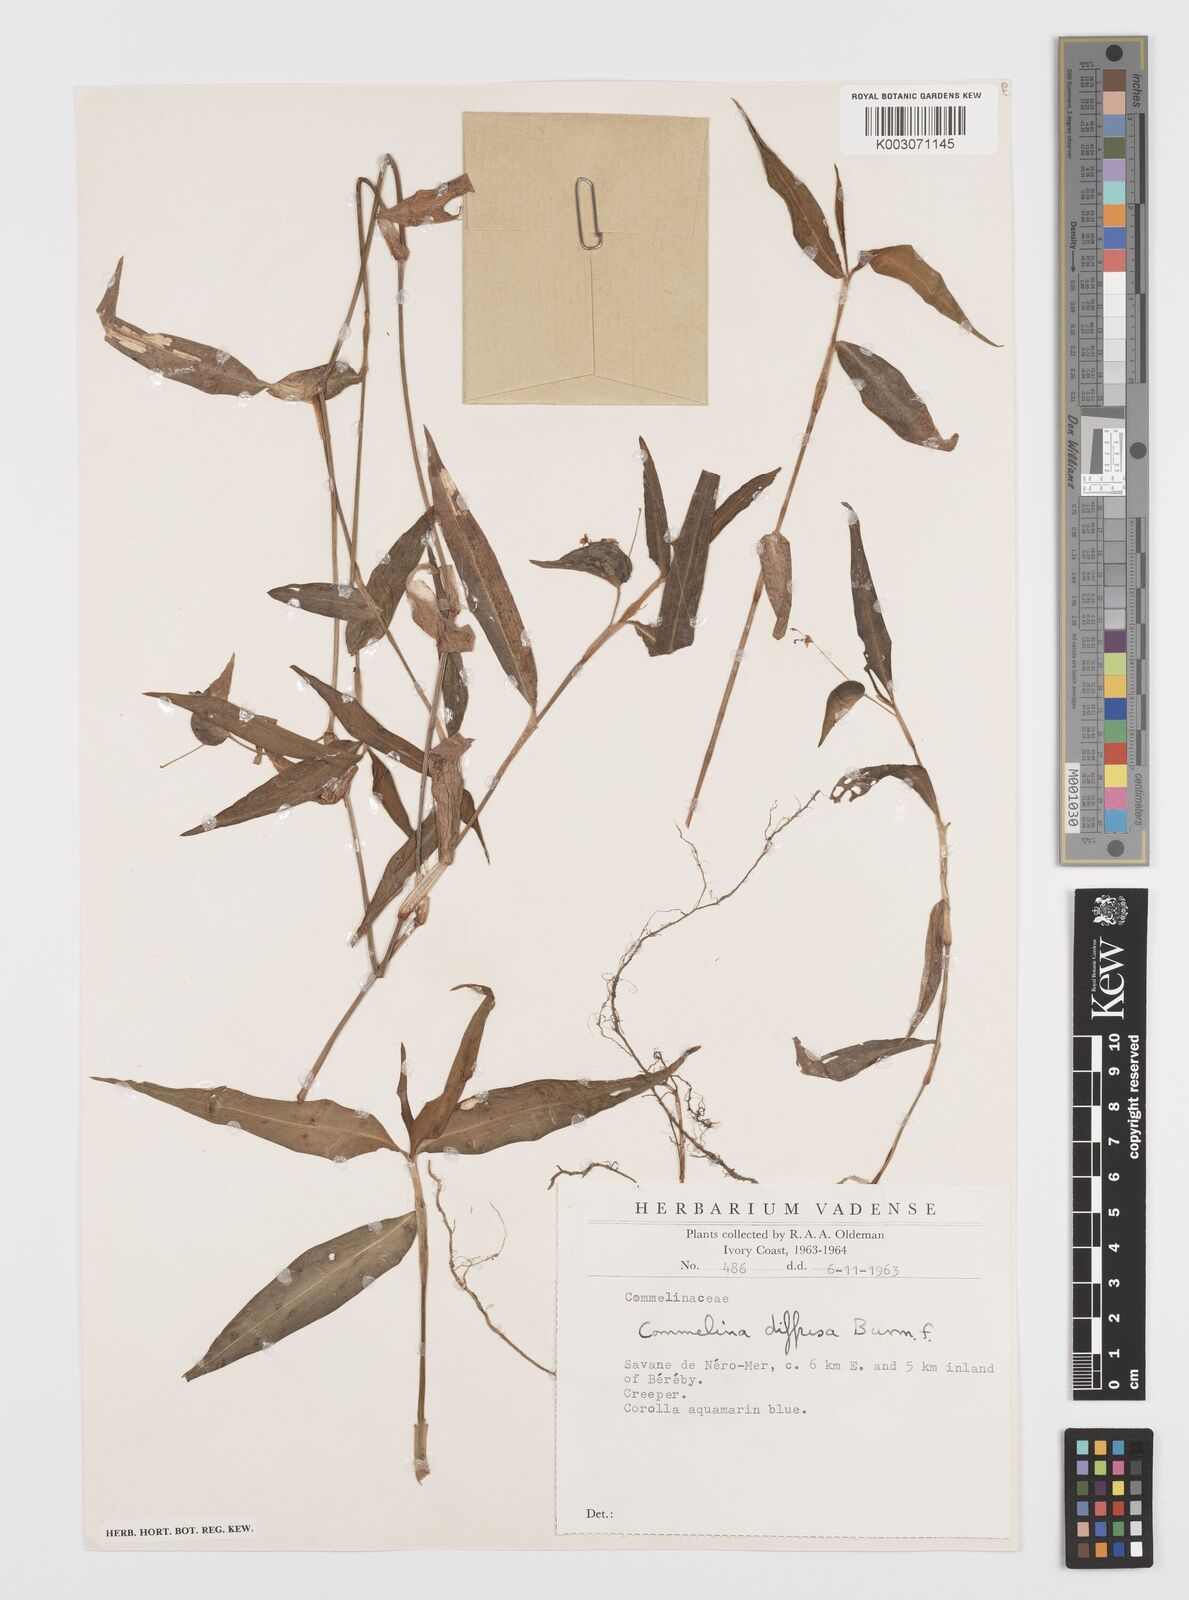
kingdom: Plantae
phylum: Tracheophyta
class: Liliopsida
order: Commelinales
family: Commelinaceae
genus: Commelina
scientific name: Commelina diffusa
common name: Climbing dayflower
